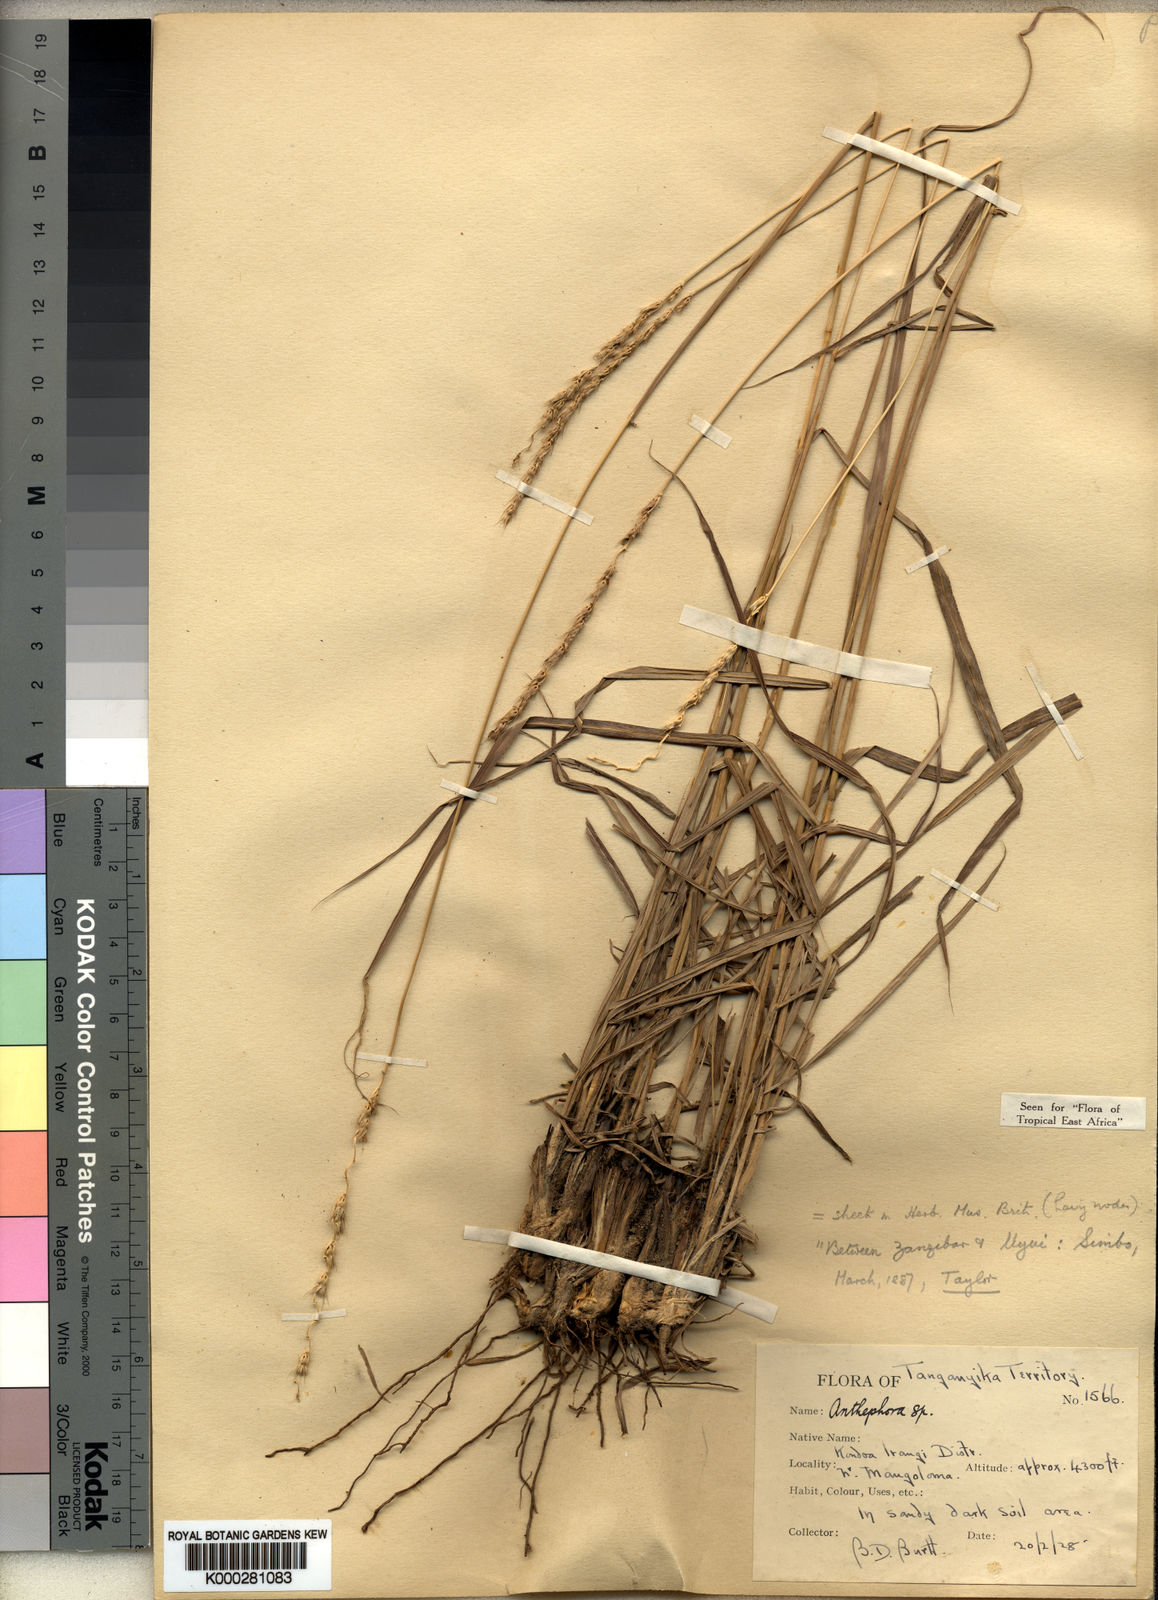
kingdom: Plantae
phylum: Tracheophyta
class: Liliopsida
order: Poales
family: Poaceae
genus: Anthephora
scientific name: Anthephora elongata
